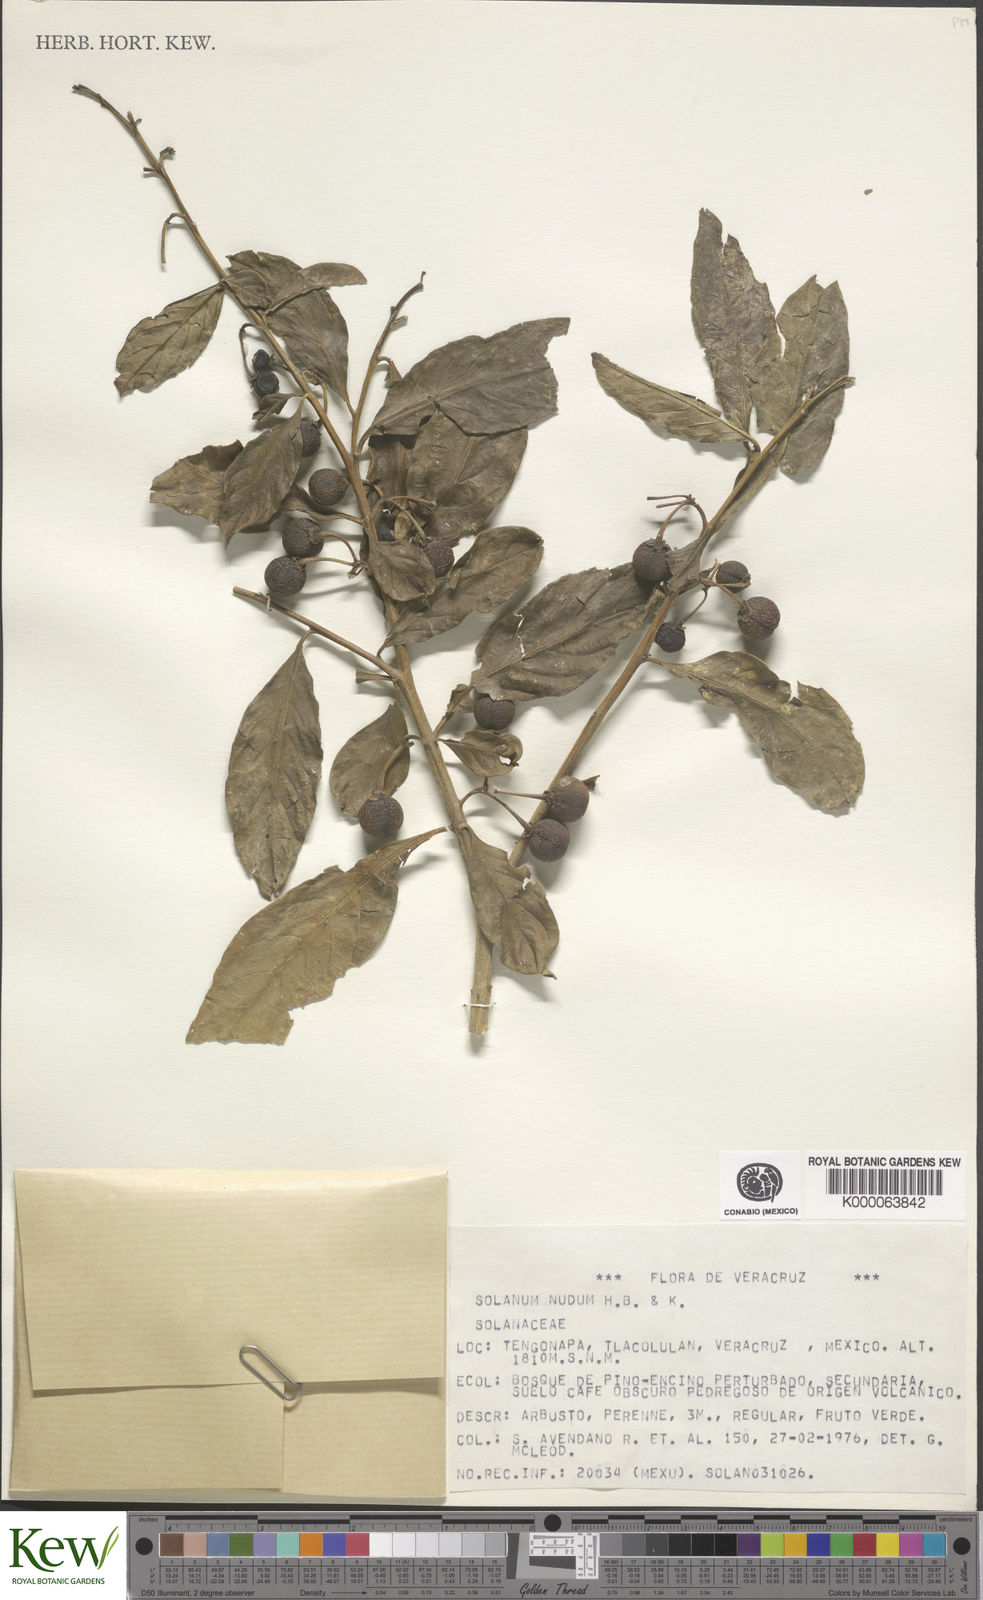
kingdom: Plantae
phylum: Tracheophyta
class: Magnoliopsida
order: Solanales
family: Solanaceae
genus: Solanum
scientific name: Solanum nudum
